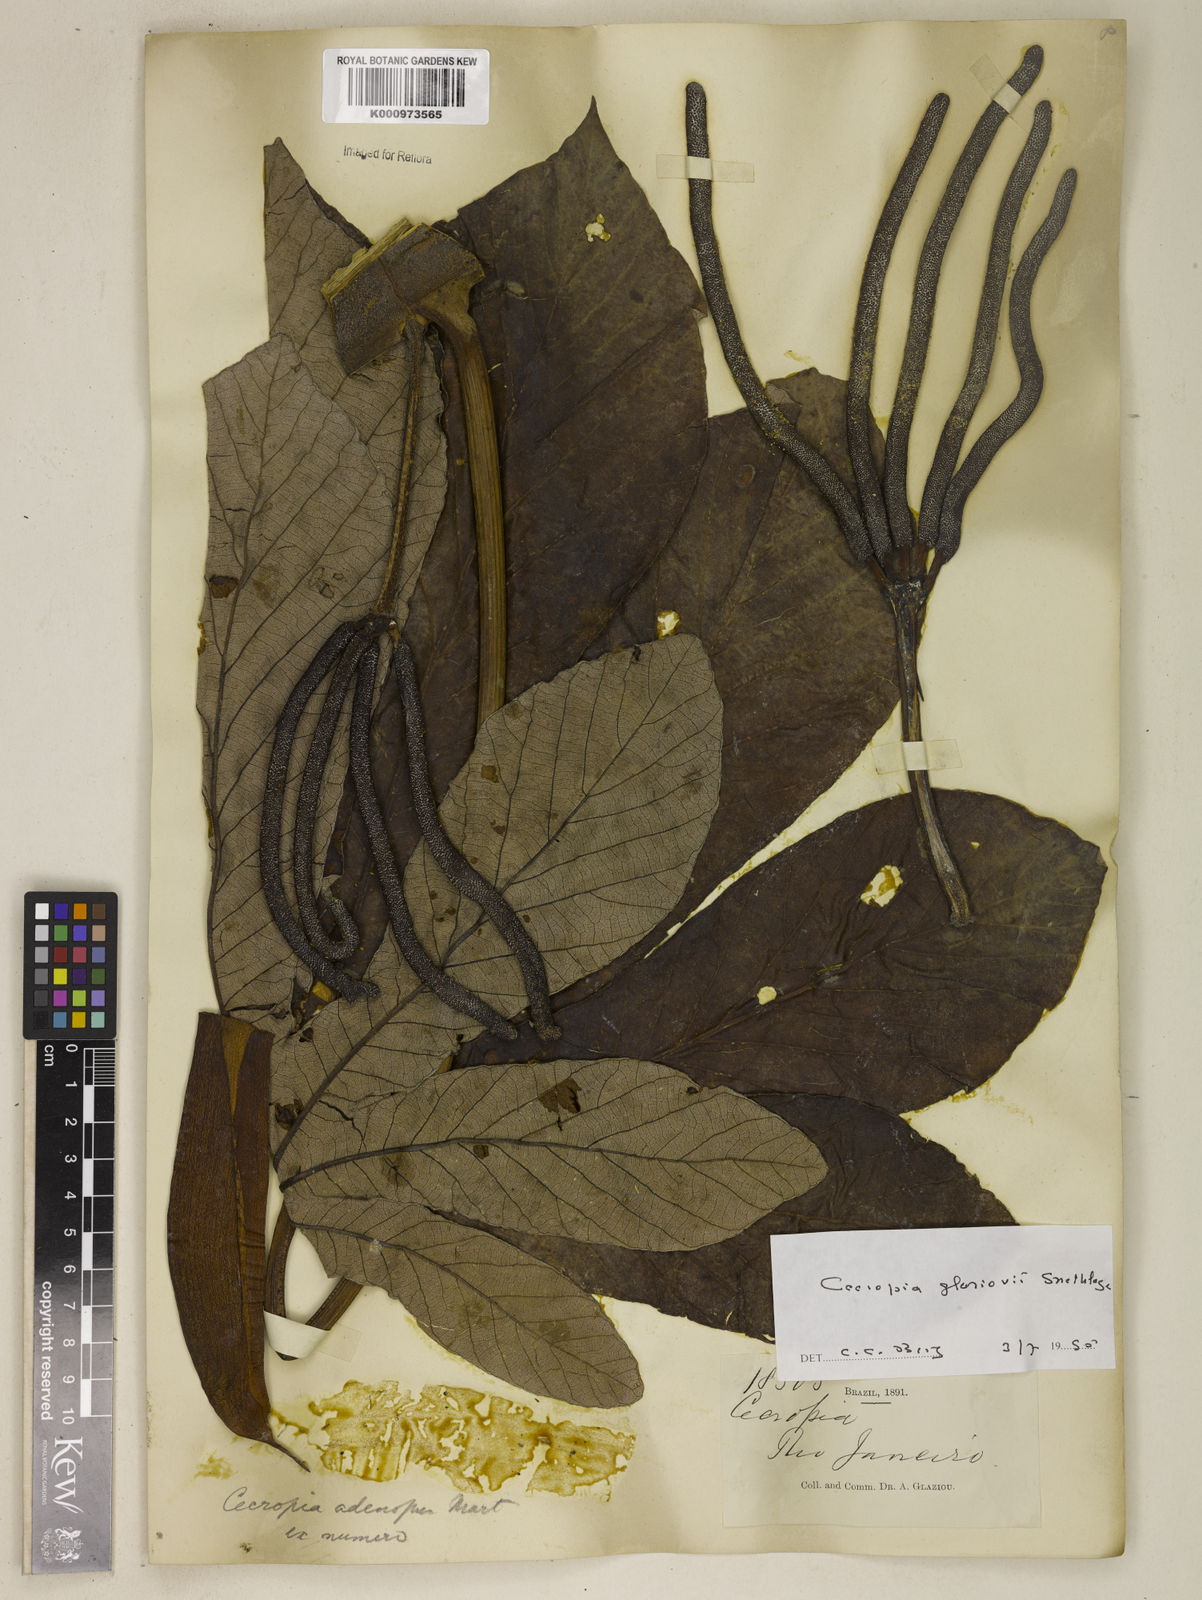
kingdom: Plantae
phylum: Tracheophyta
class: Magnoliopsida
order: Rosales
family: Urticaceae
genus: Cecropia
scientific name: Cecropia
